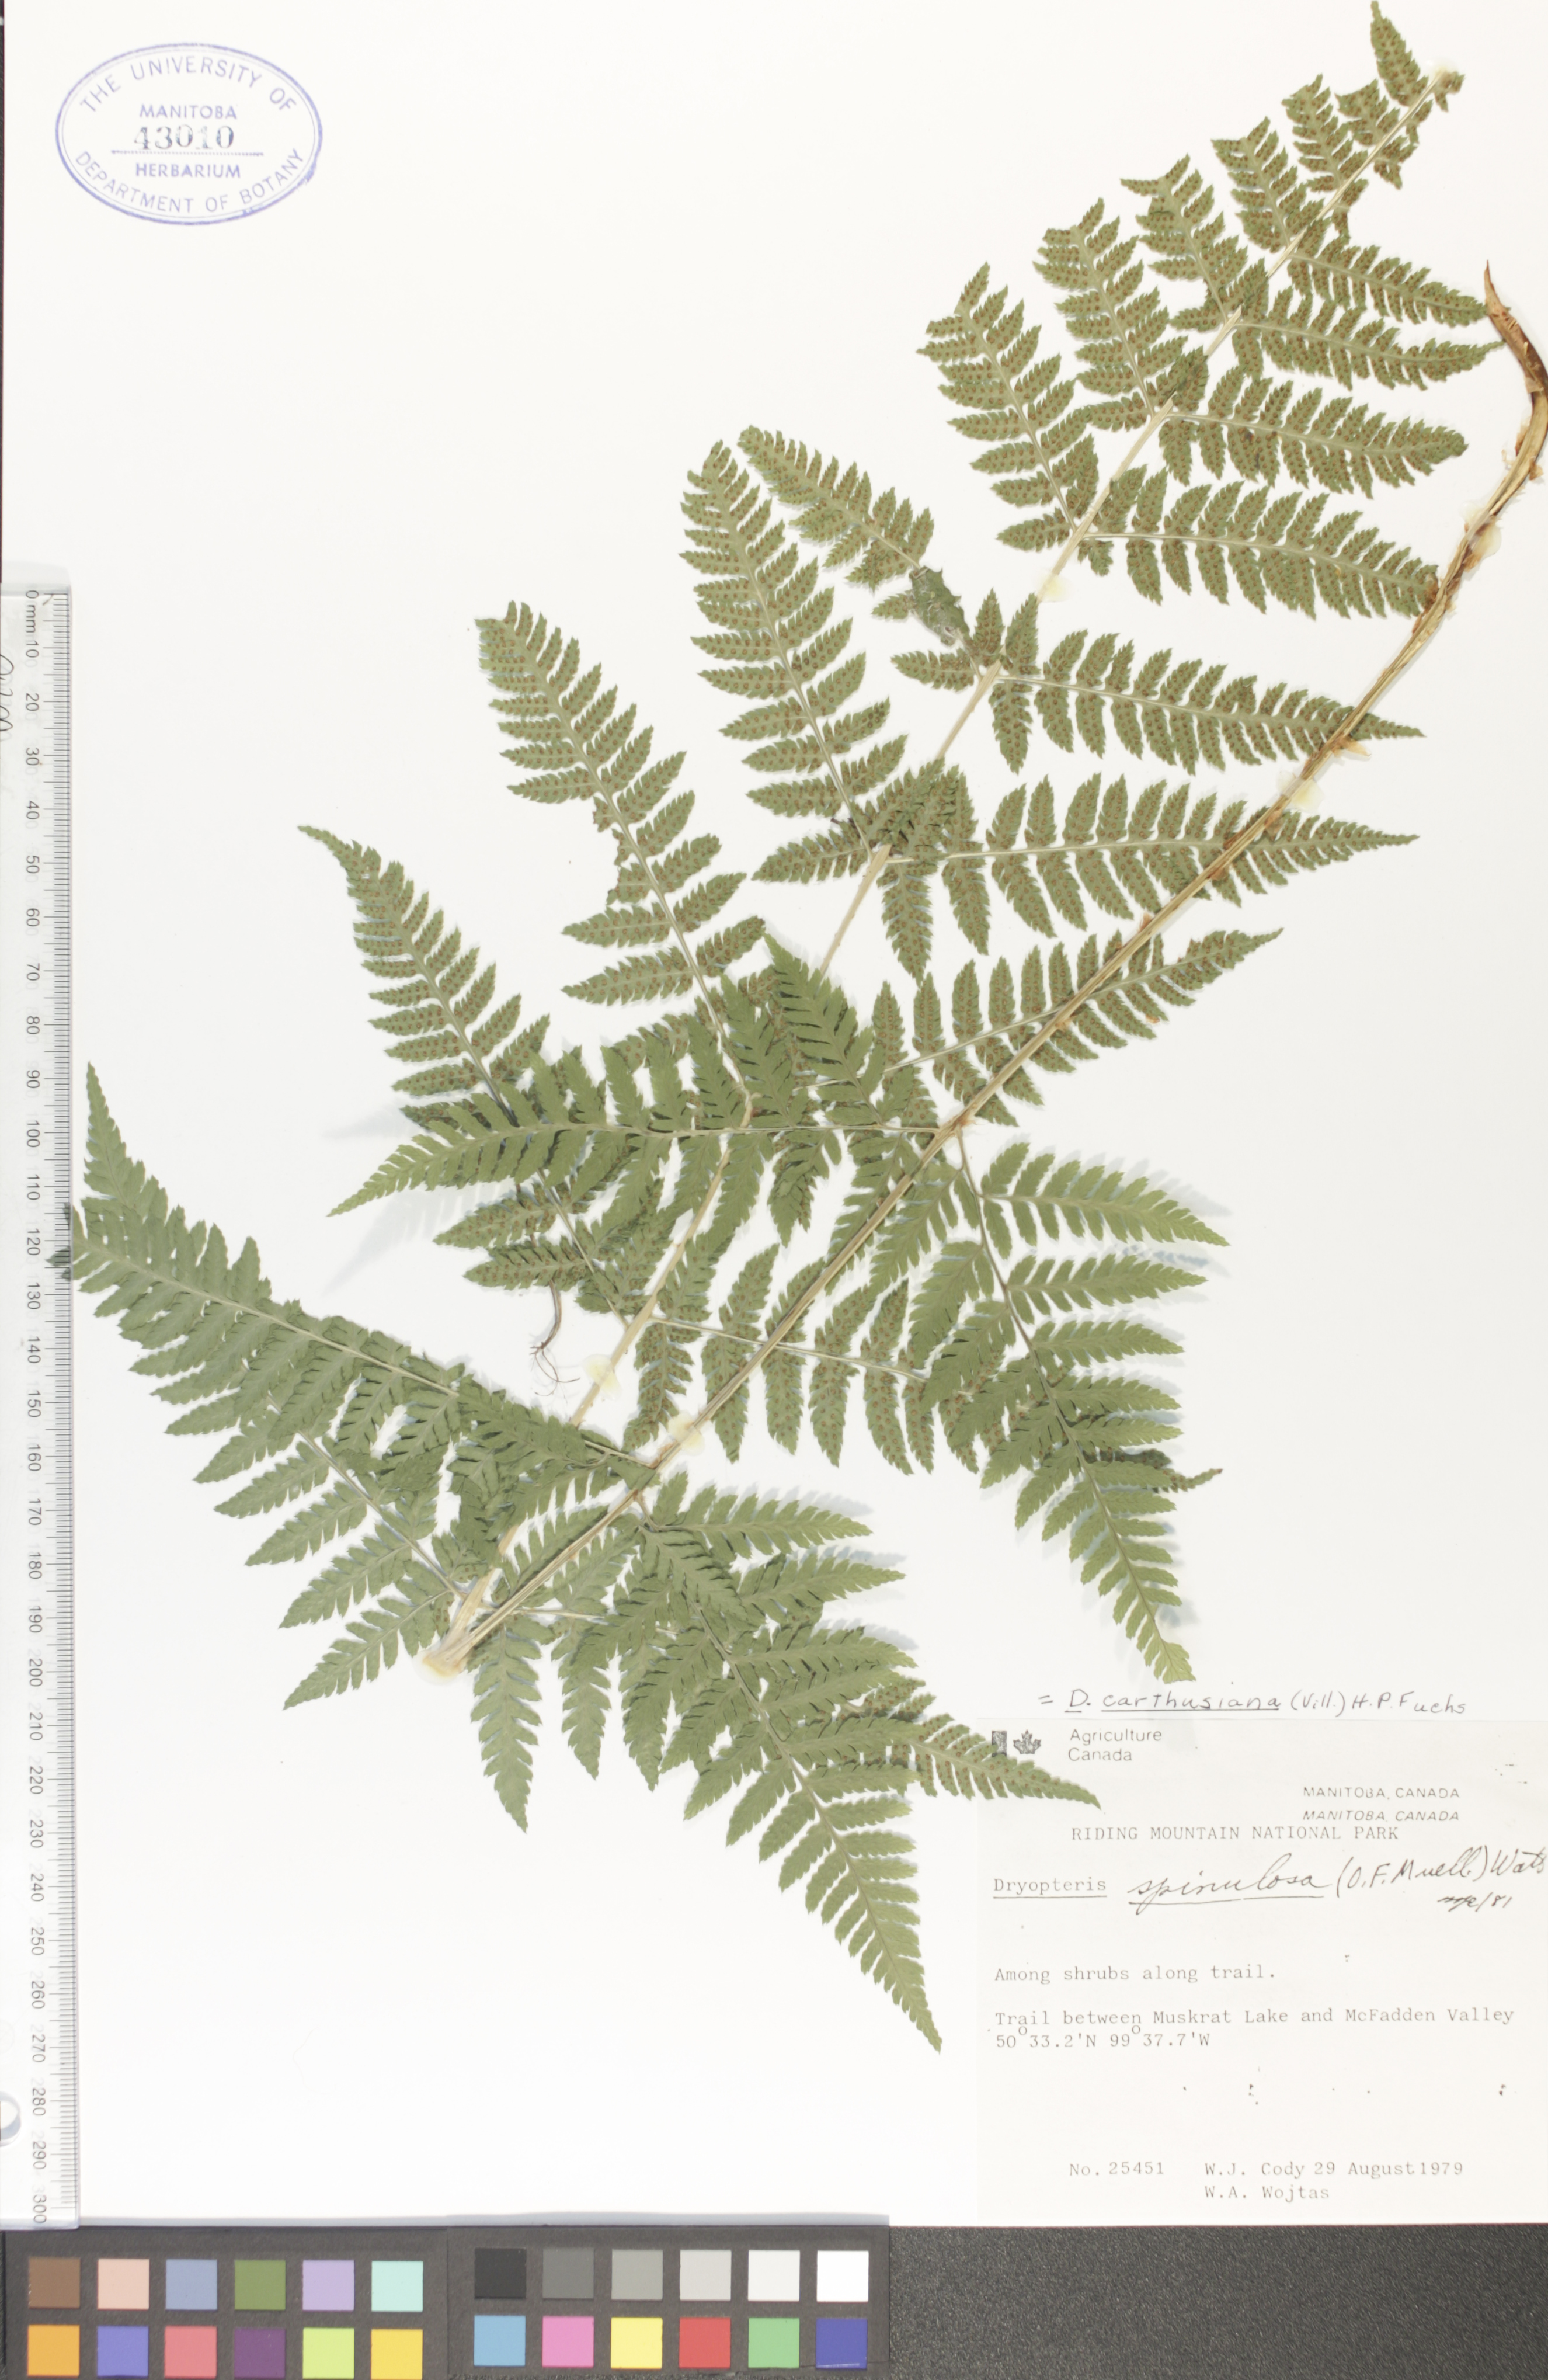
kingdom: Plantae
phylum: Tracheophyta
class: Polypodiopsida
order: Polypodiales
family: Dryopteridaceae
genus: Dryopteris
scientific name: Dryopteris carthusiana
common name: Narrow buckler-fern
